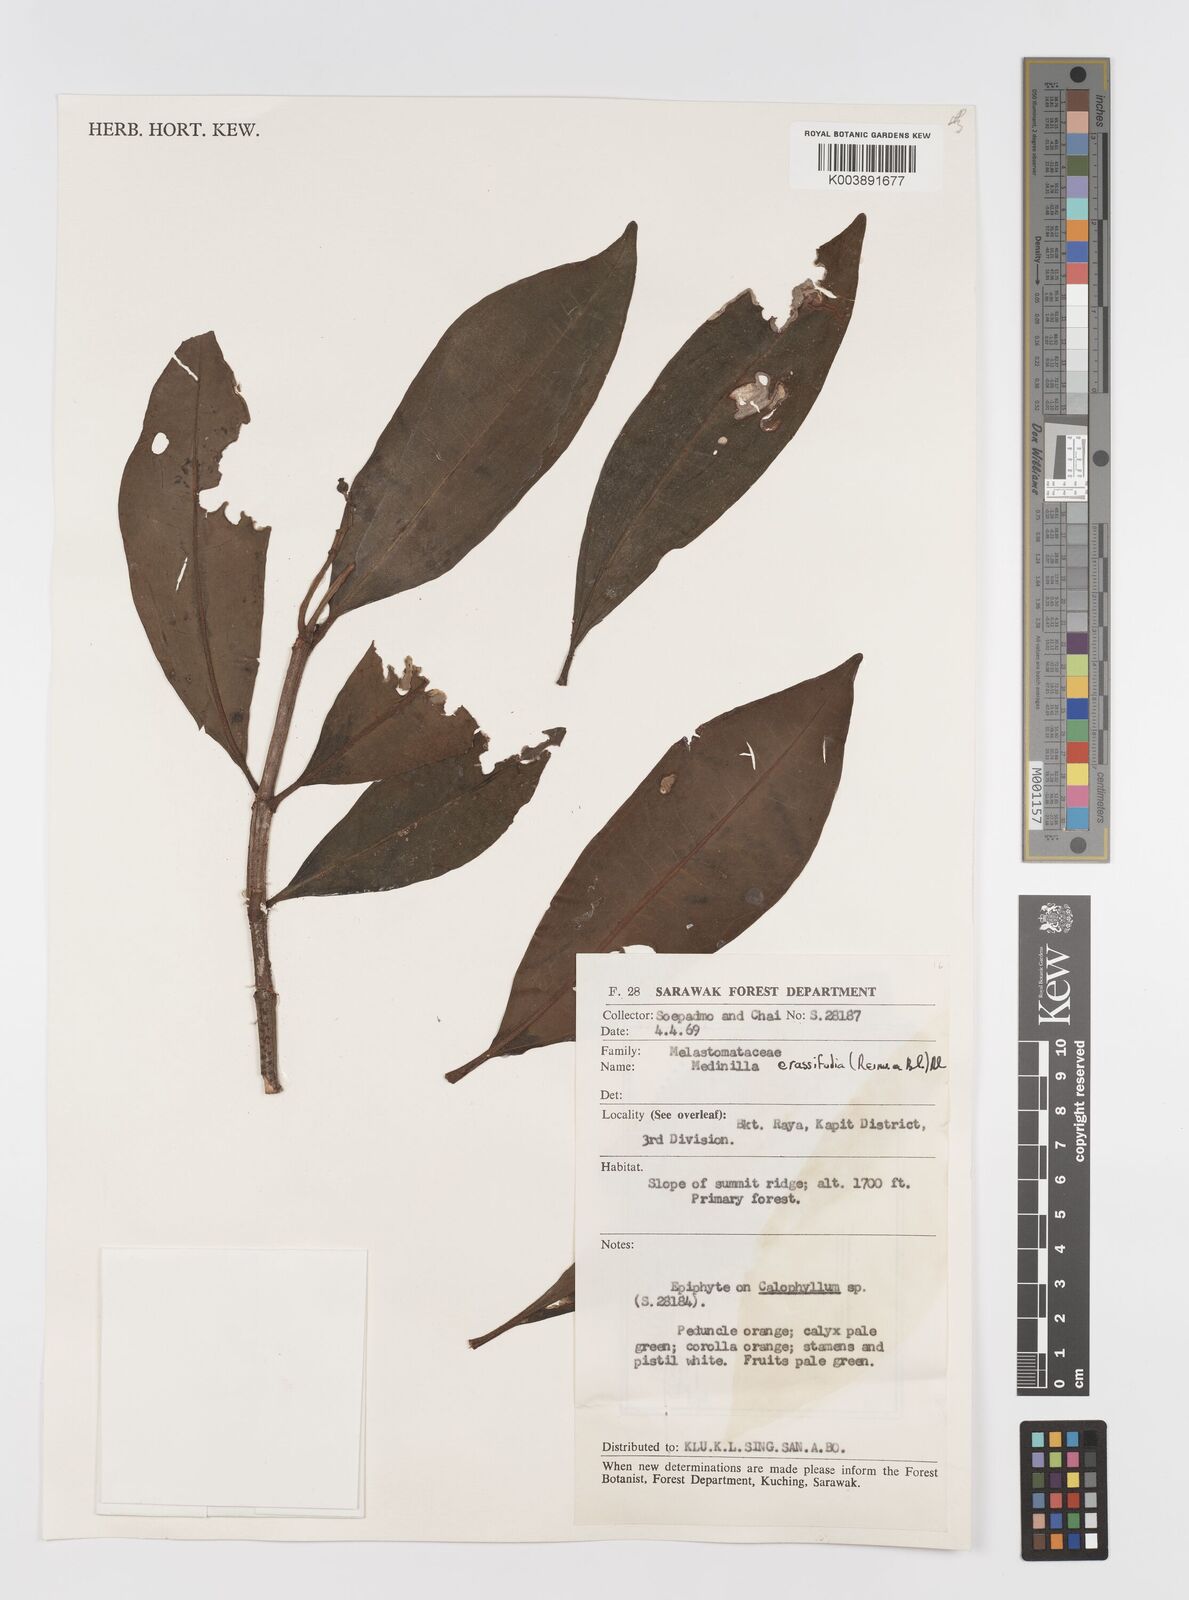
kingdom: Plantae
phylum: Tracheophyta
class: Magnoliopsida
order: Myrtales
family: Melastomataceae
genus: Medinilla
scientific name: Medinilla crassifolia
